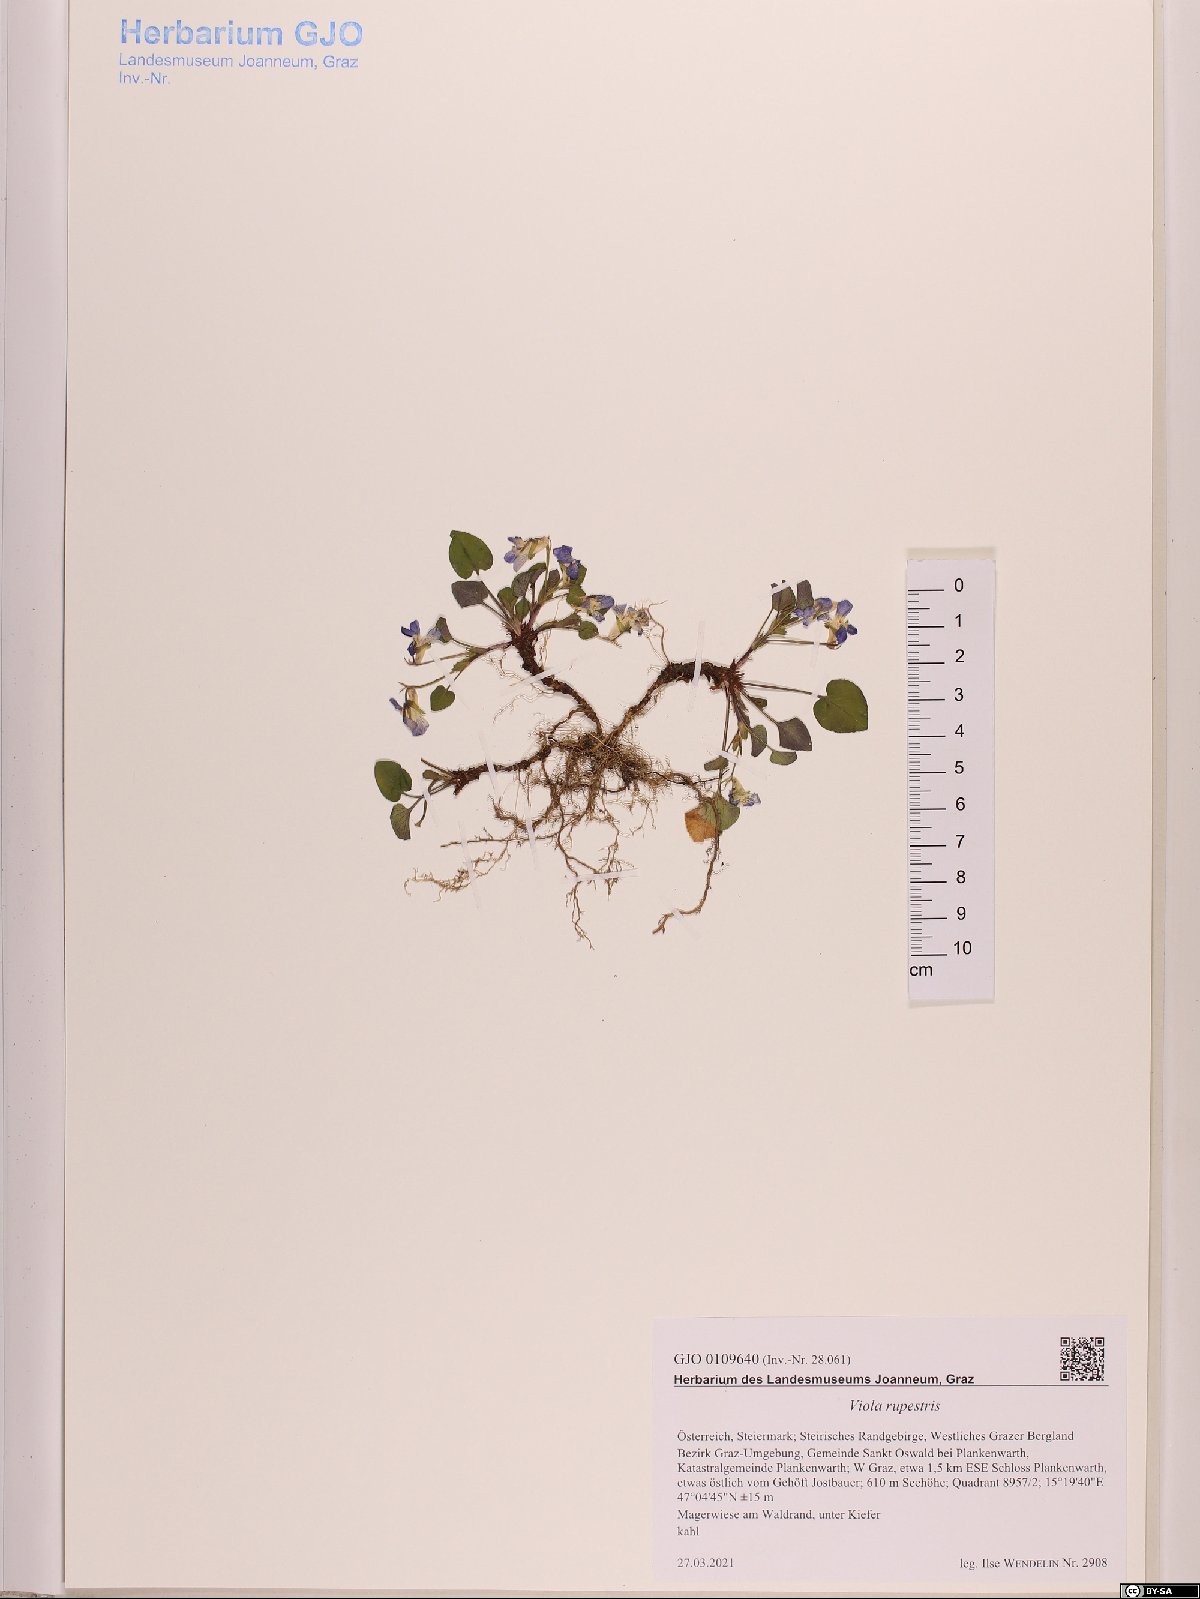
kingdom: Plantae
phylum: Tracheophyta
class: Magnoliopsida
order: Malpighiales
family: Violaceae
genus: Viola
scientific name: Viola rupestris
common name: Teesdale violet
